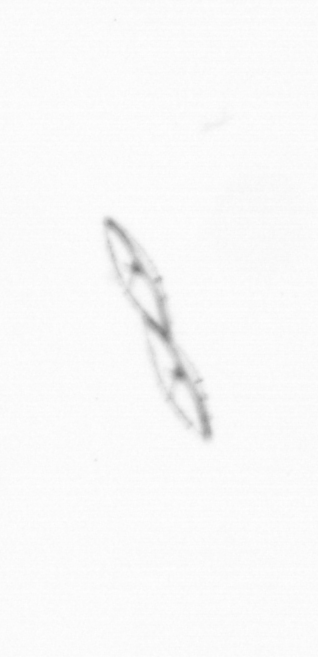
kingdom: Chromista
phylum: Myzozoa
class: Dinophyceae
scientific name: Dinophyceae
